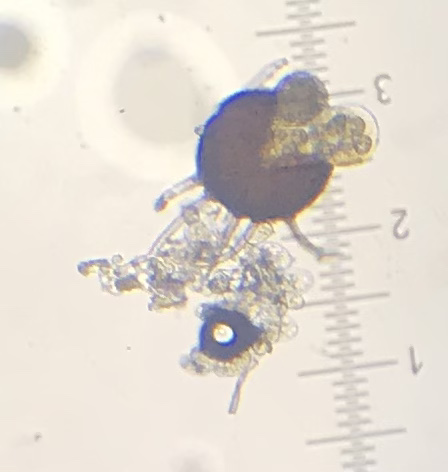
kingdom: Fungi
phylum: Ascomycota
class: Leotiomycetes
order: Helotiales
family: Erysiphaceae
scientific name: Erysiphaceae
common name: meldugfamilien
